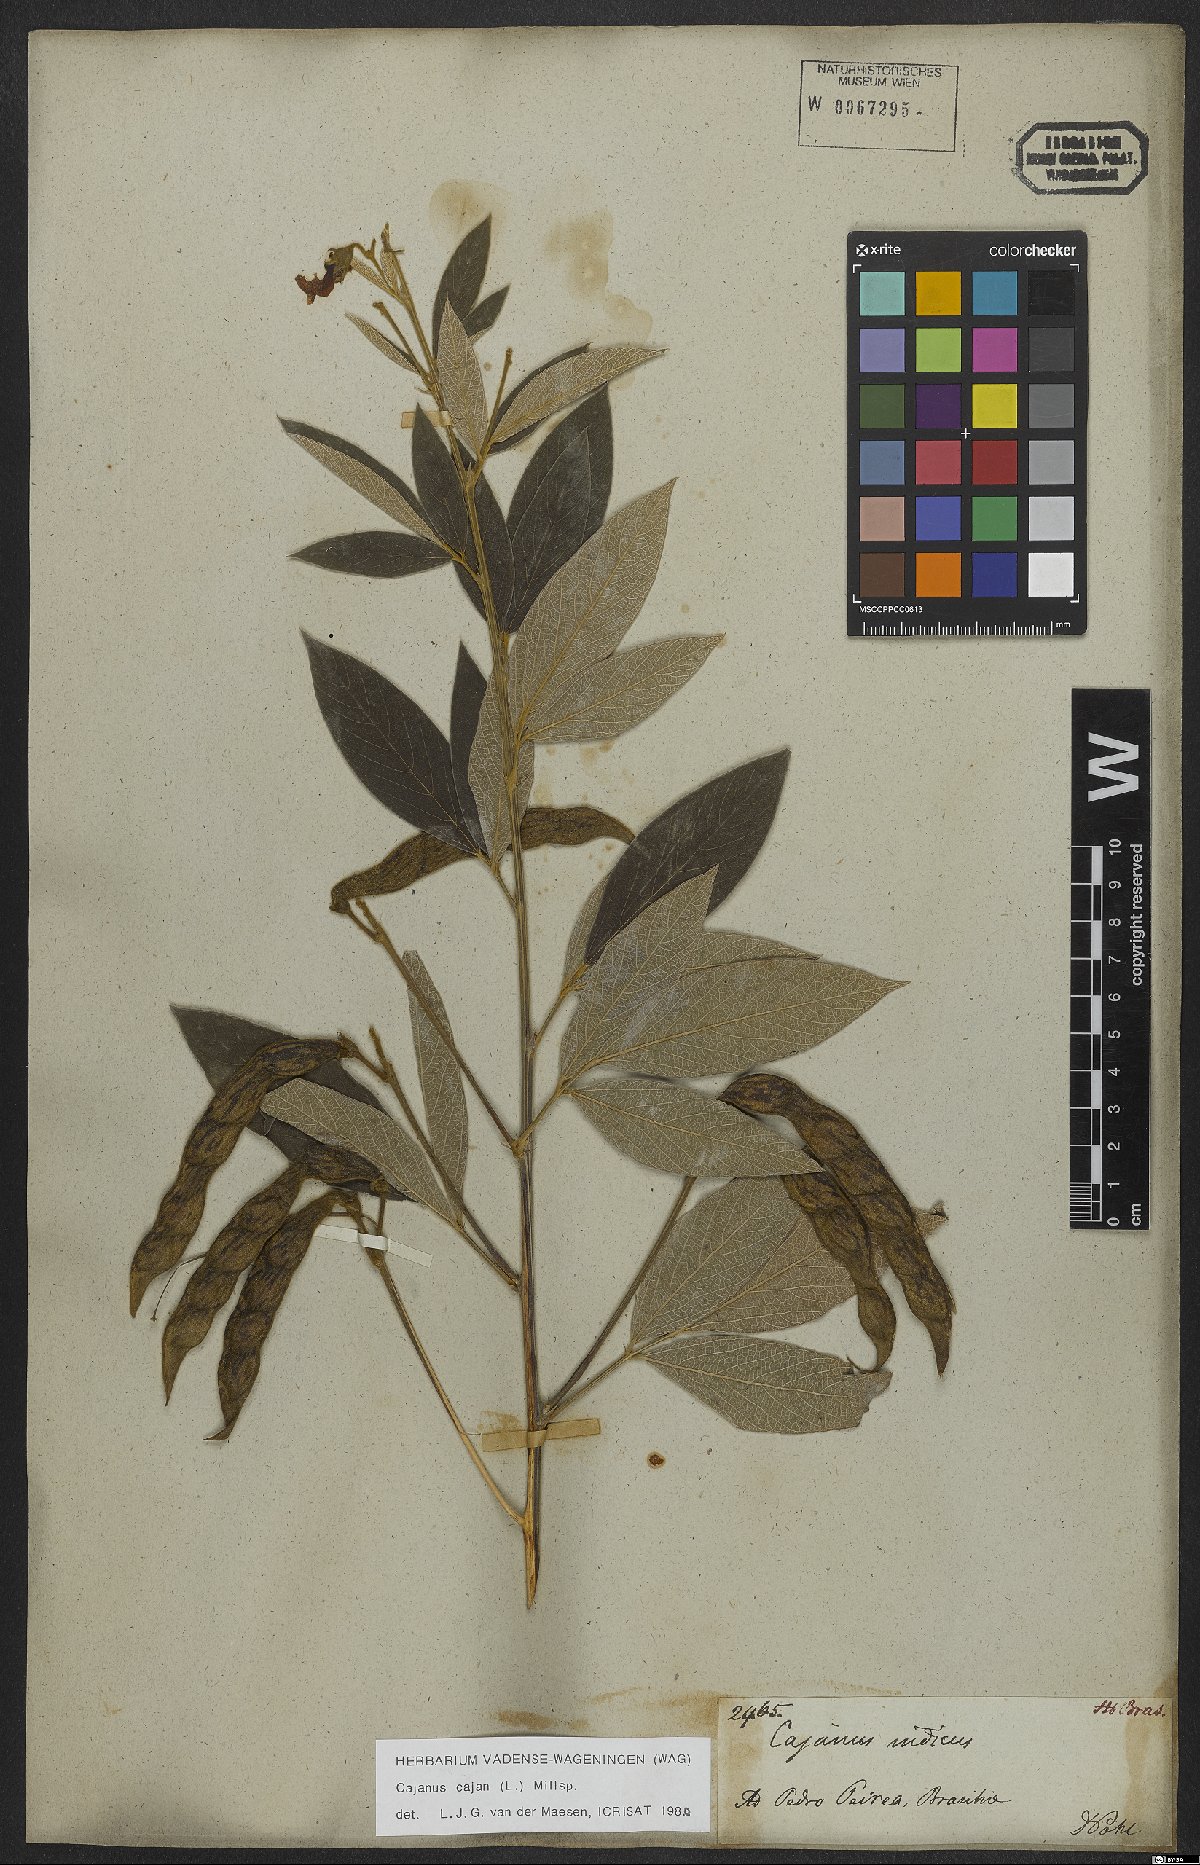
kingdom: Plantae
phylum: Tracheophyta
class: Magnoliopsida
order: Fabales
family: Fabaceae
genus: Cajanus
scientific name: Cajanus cajan
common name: Pigeonpea
